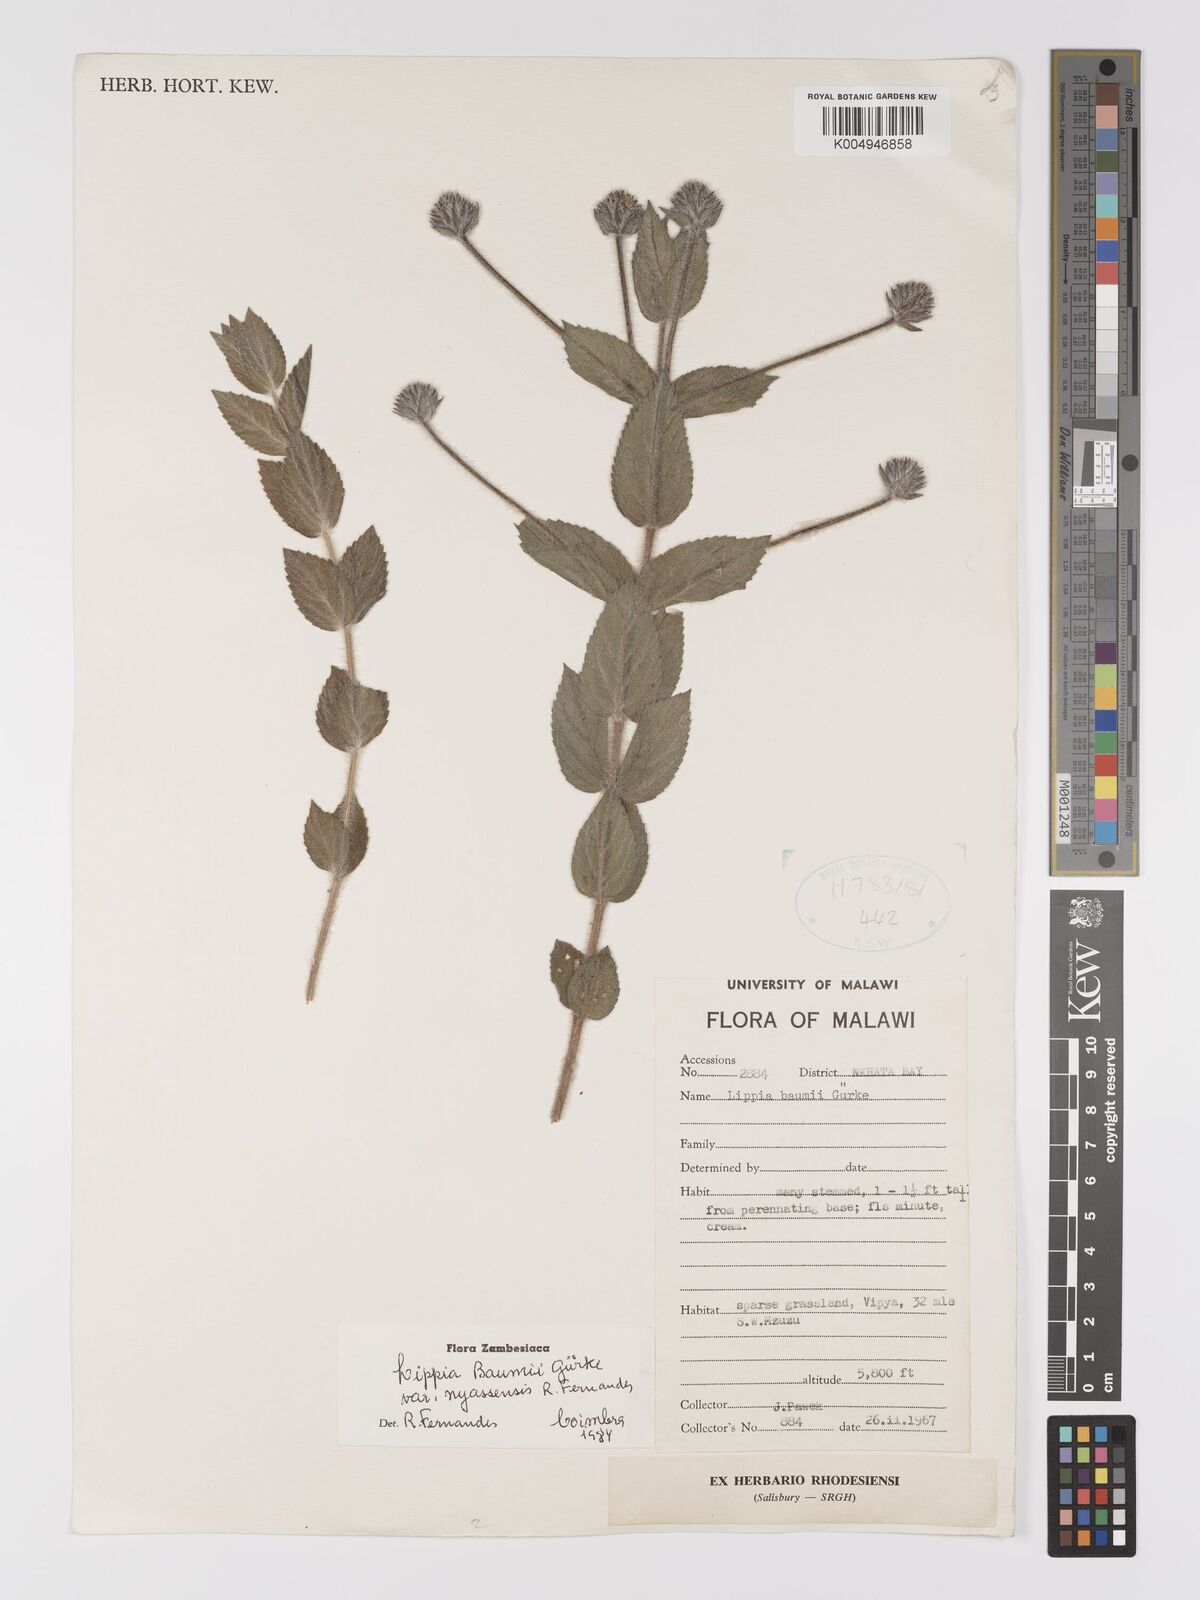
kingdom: Plantae
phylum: Tracheophyta
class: Magnoliopsida
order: Lamiales
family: Verbenaceae
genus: Lippia
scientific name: Lippia baumii
